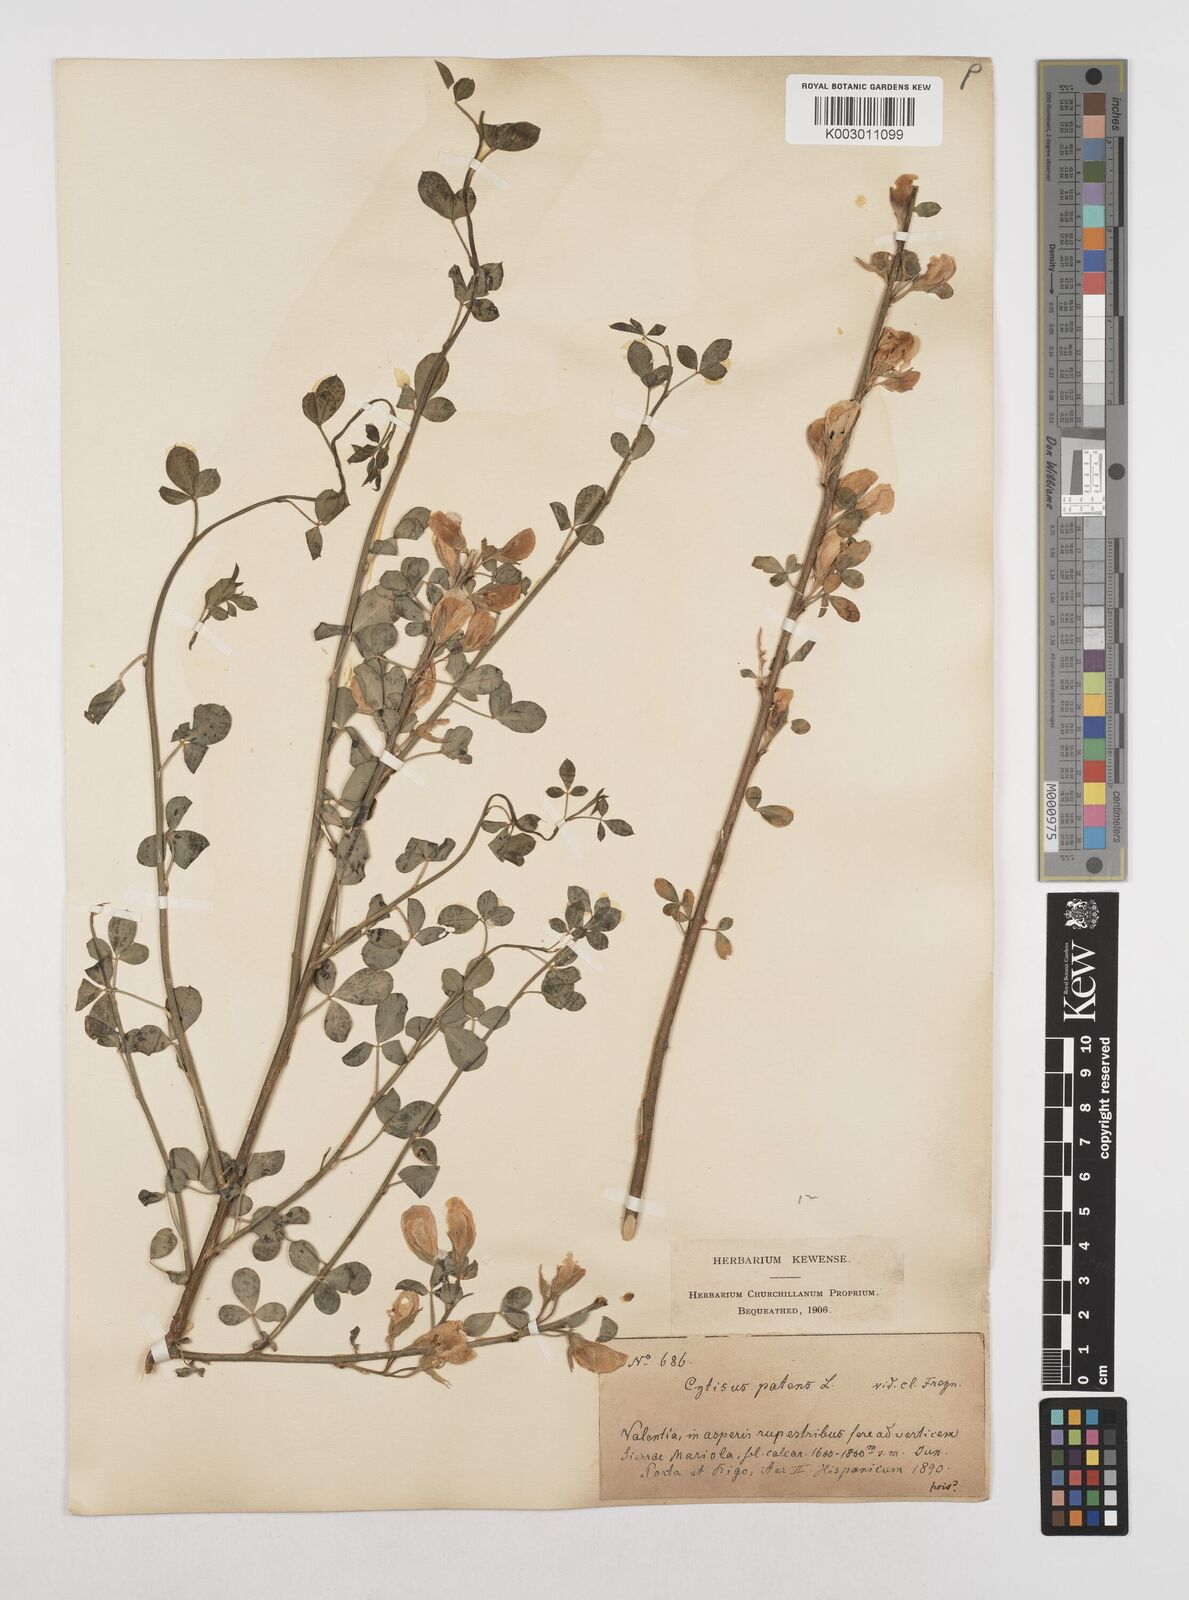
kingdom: Plantae
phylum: Tracheophyta
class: Magnoliopsida
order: Fabales
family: Fabaceae
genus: Cytisus
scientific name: Cytisus striatus
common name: Hairy-fruited broom
